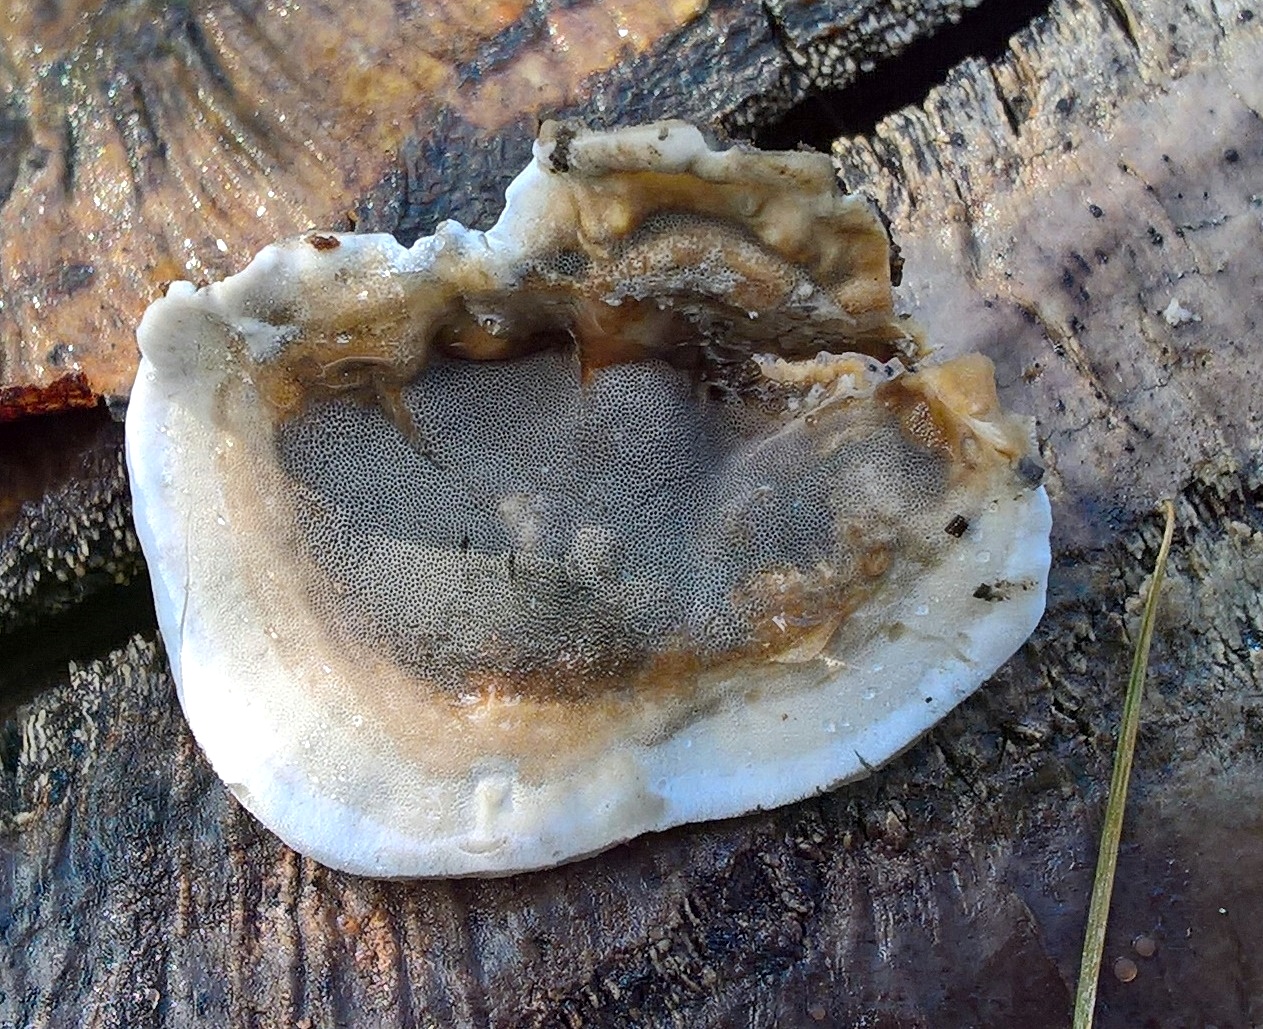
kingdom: Fungi
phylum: Basidiomycota
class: Agaricomycetes
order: Polyporales
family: Phanerochaetaceae
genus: Bjerkandera
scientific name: Bjerkandera adusta
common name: sveden sodporesvamp
